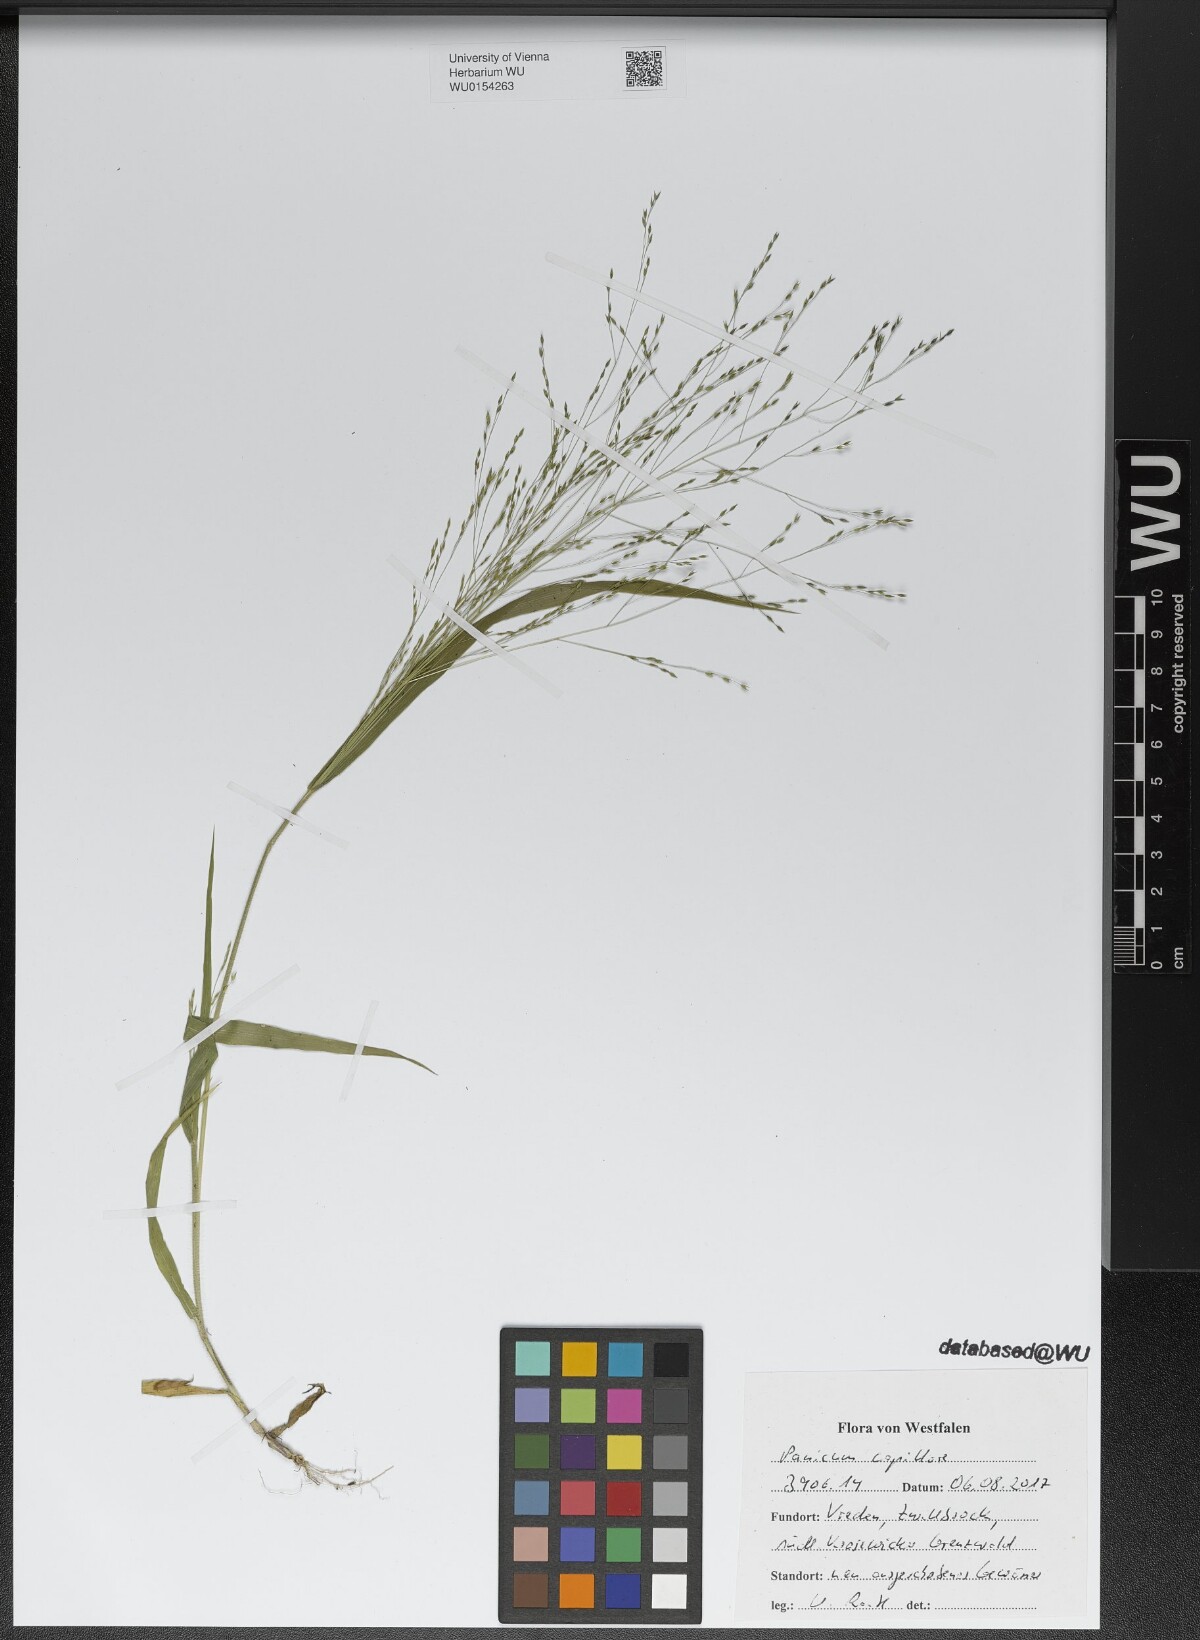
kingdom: Plantae
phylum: Tracheophyta
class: Liliopsida
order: Poales
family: Poaceae
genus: Panicum
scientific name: Panicum capillare
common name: Witch-grass
